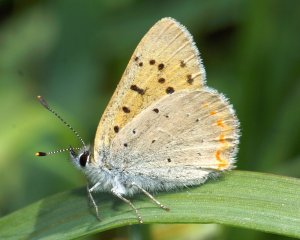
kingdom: Animalia
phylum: Arthropoda
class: Insecta
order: Lepidoptera
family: Sesiidae
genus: Sesia
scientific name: Sesia Lycaena helloides
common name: Purplish Copper
